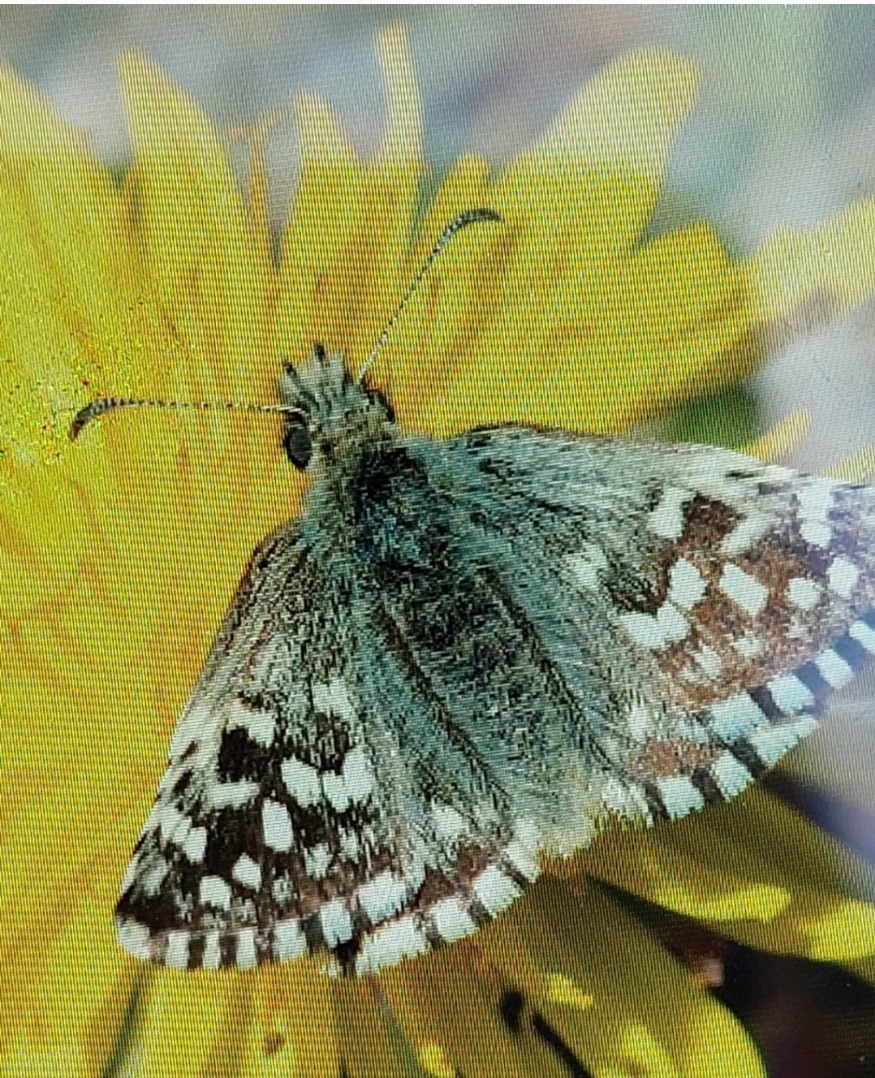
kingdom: Animalia
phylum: Arthropoda
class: Insecta
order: Lepidoptera
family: Hesperiidae
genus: Pyrgus
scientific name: Pyrgus malvae
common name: Spættet bredpande
